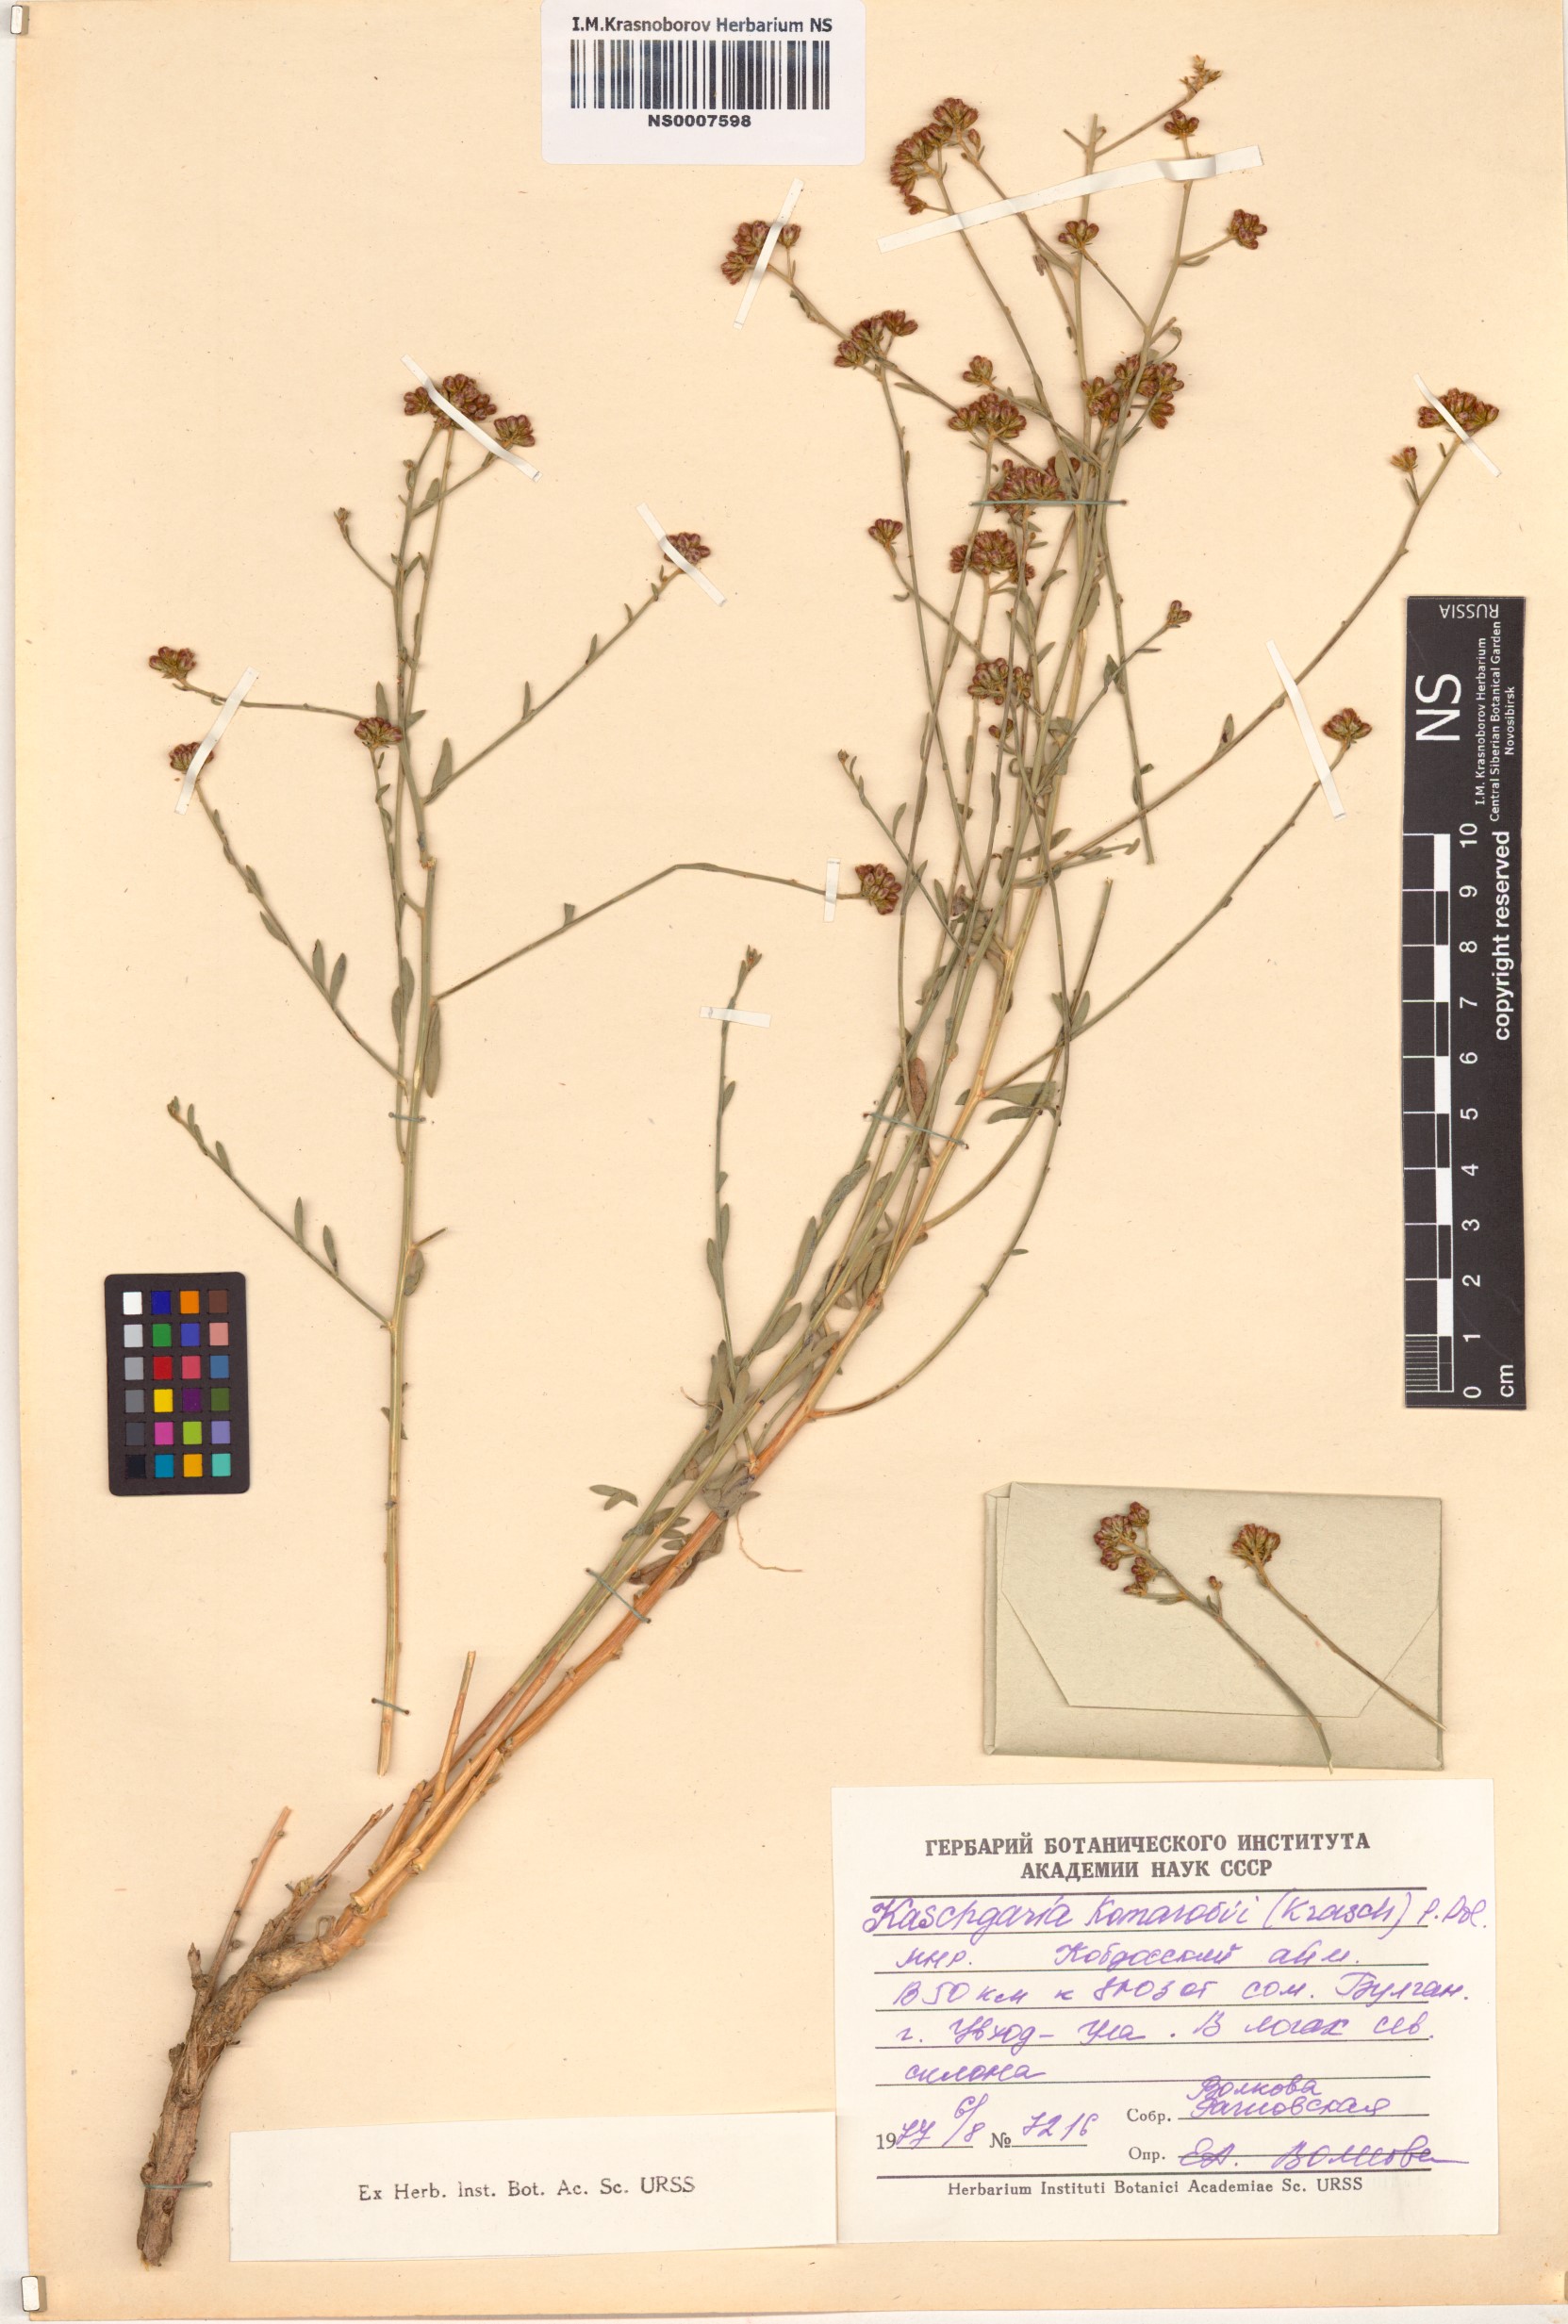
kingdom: Plantae
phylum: Tracheophyta
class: Magnoliopsida
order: Asterales
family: Asteraceae
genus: Kaschgaria
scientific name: Kaschgaria komarovii
